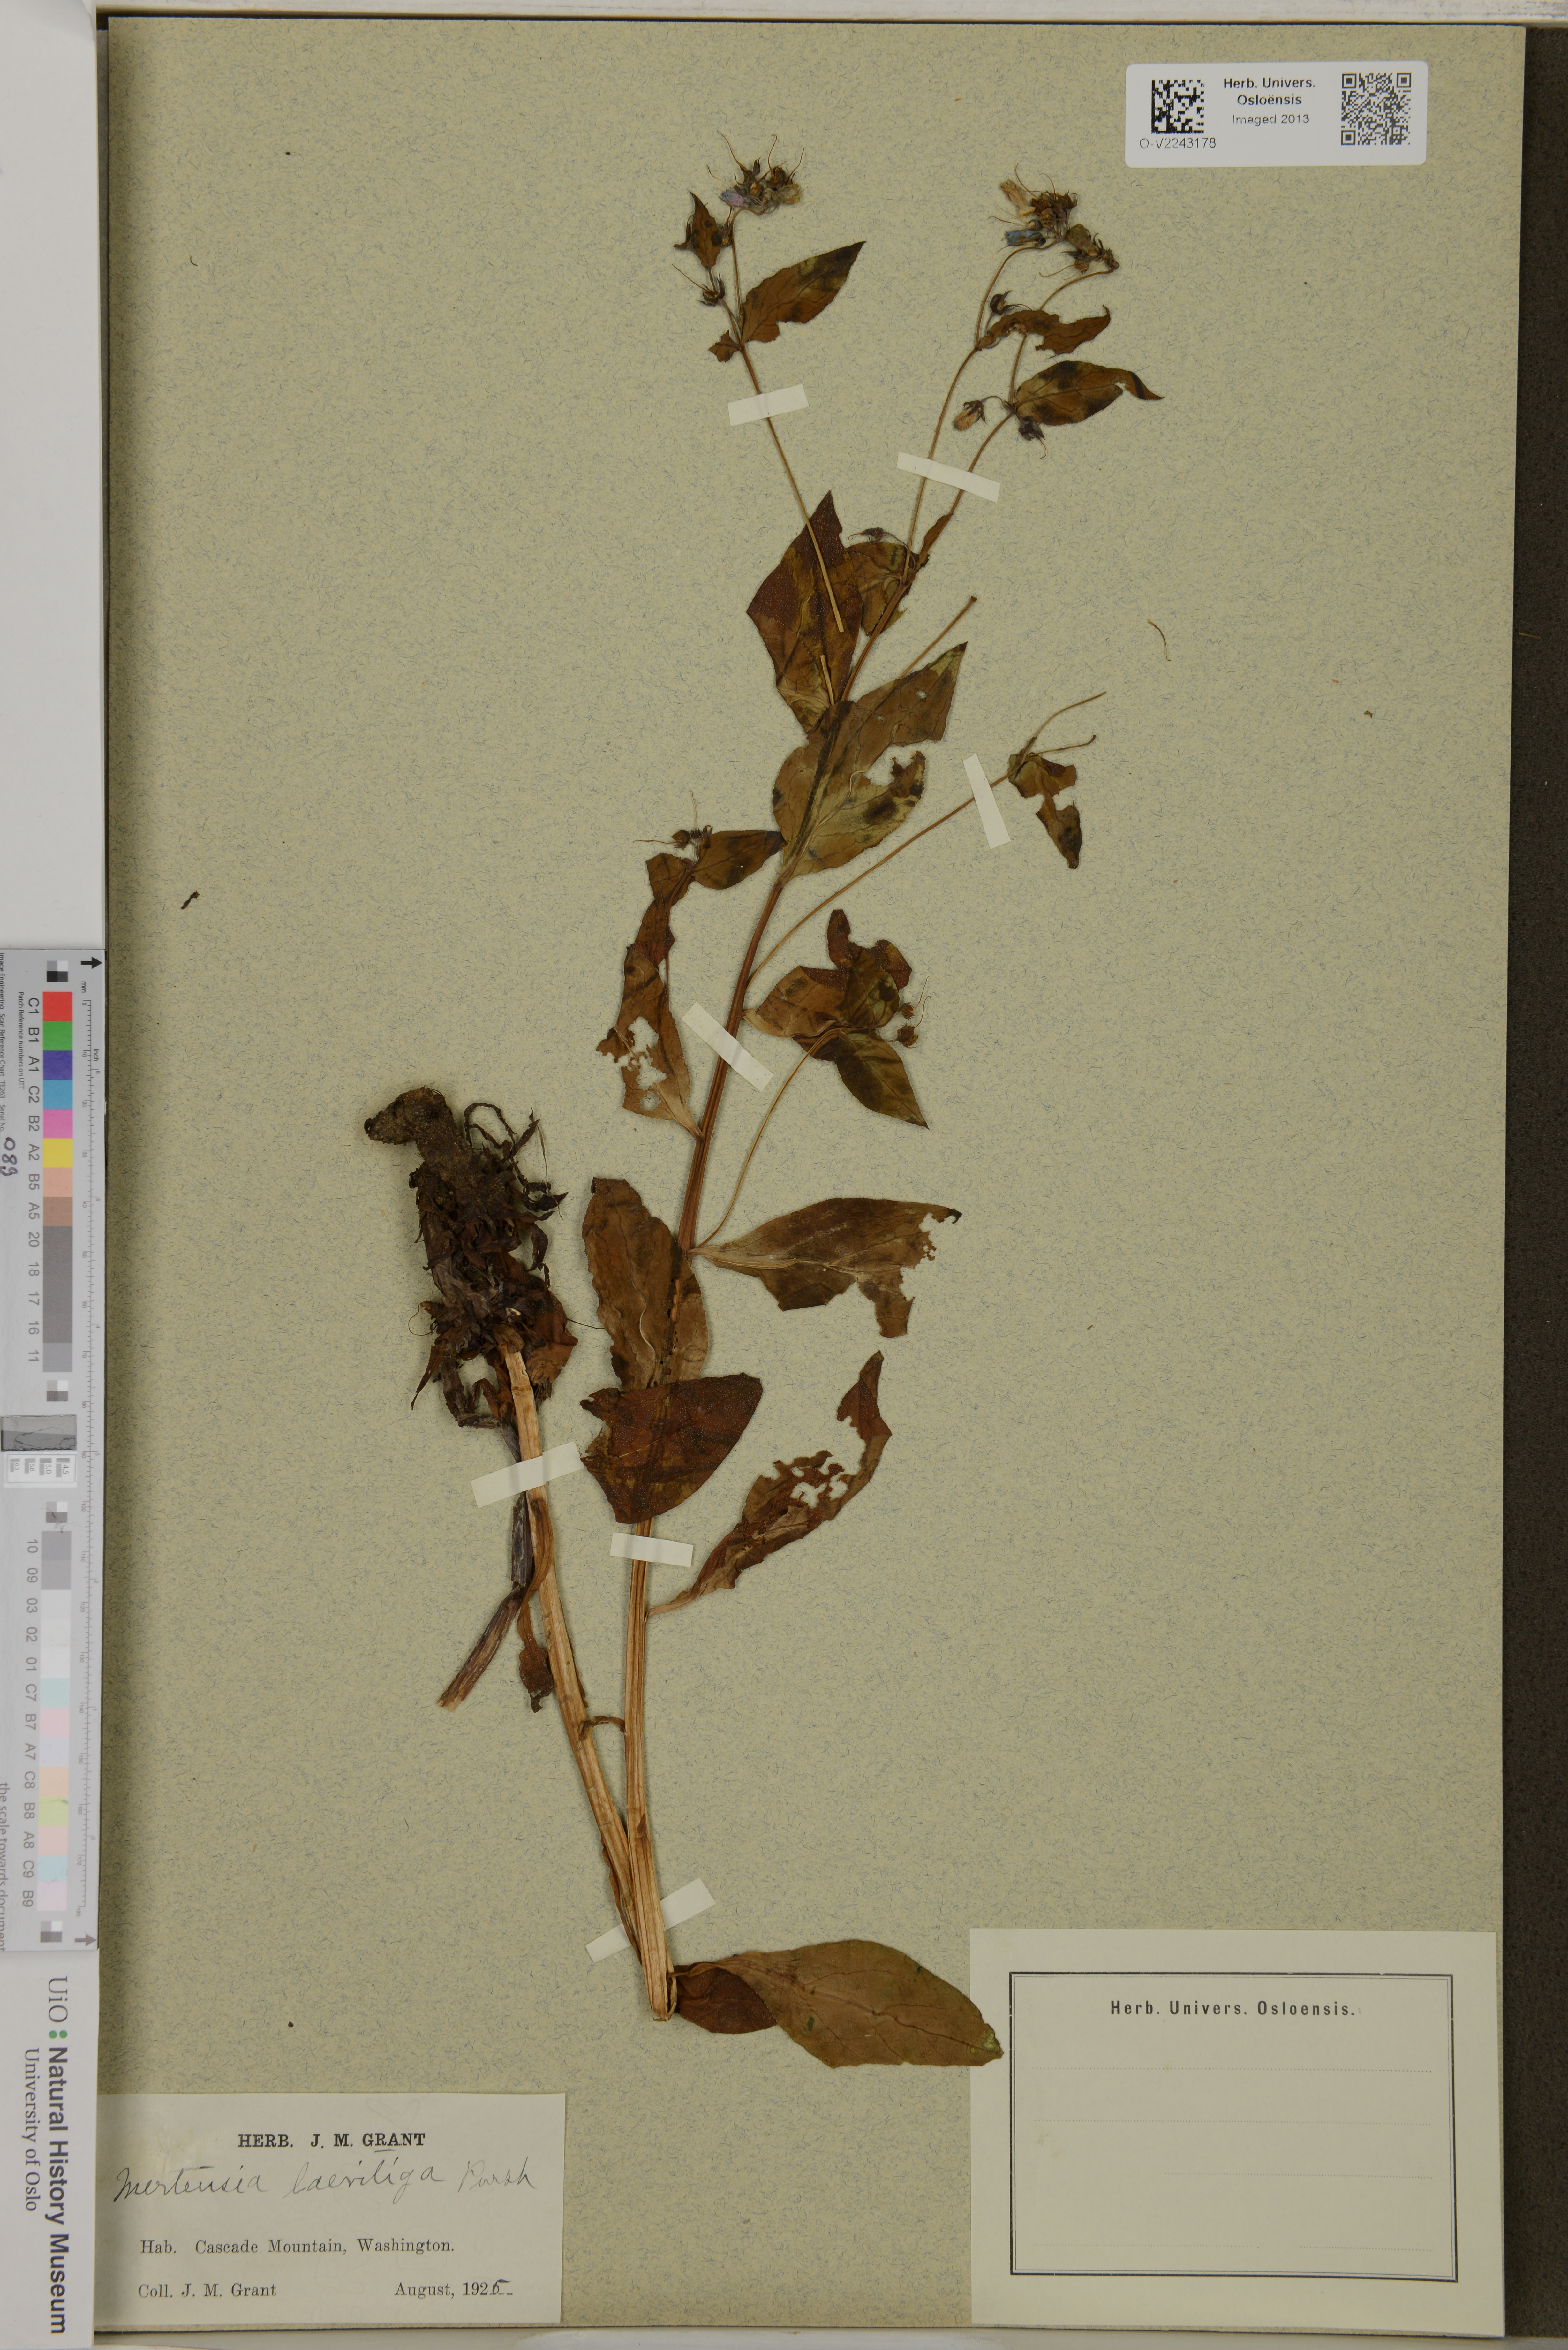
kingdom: Plantae
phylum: Tracheophyta
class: Polypodiopsida
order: Gleicheniales
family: Gleicheniaceae
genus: Diplopterygium
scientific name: Diplopterygium laevissimum
